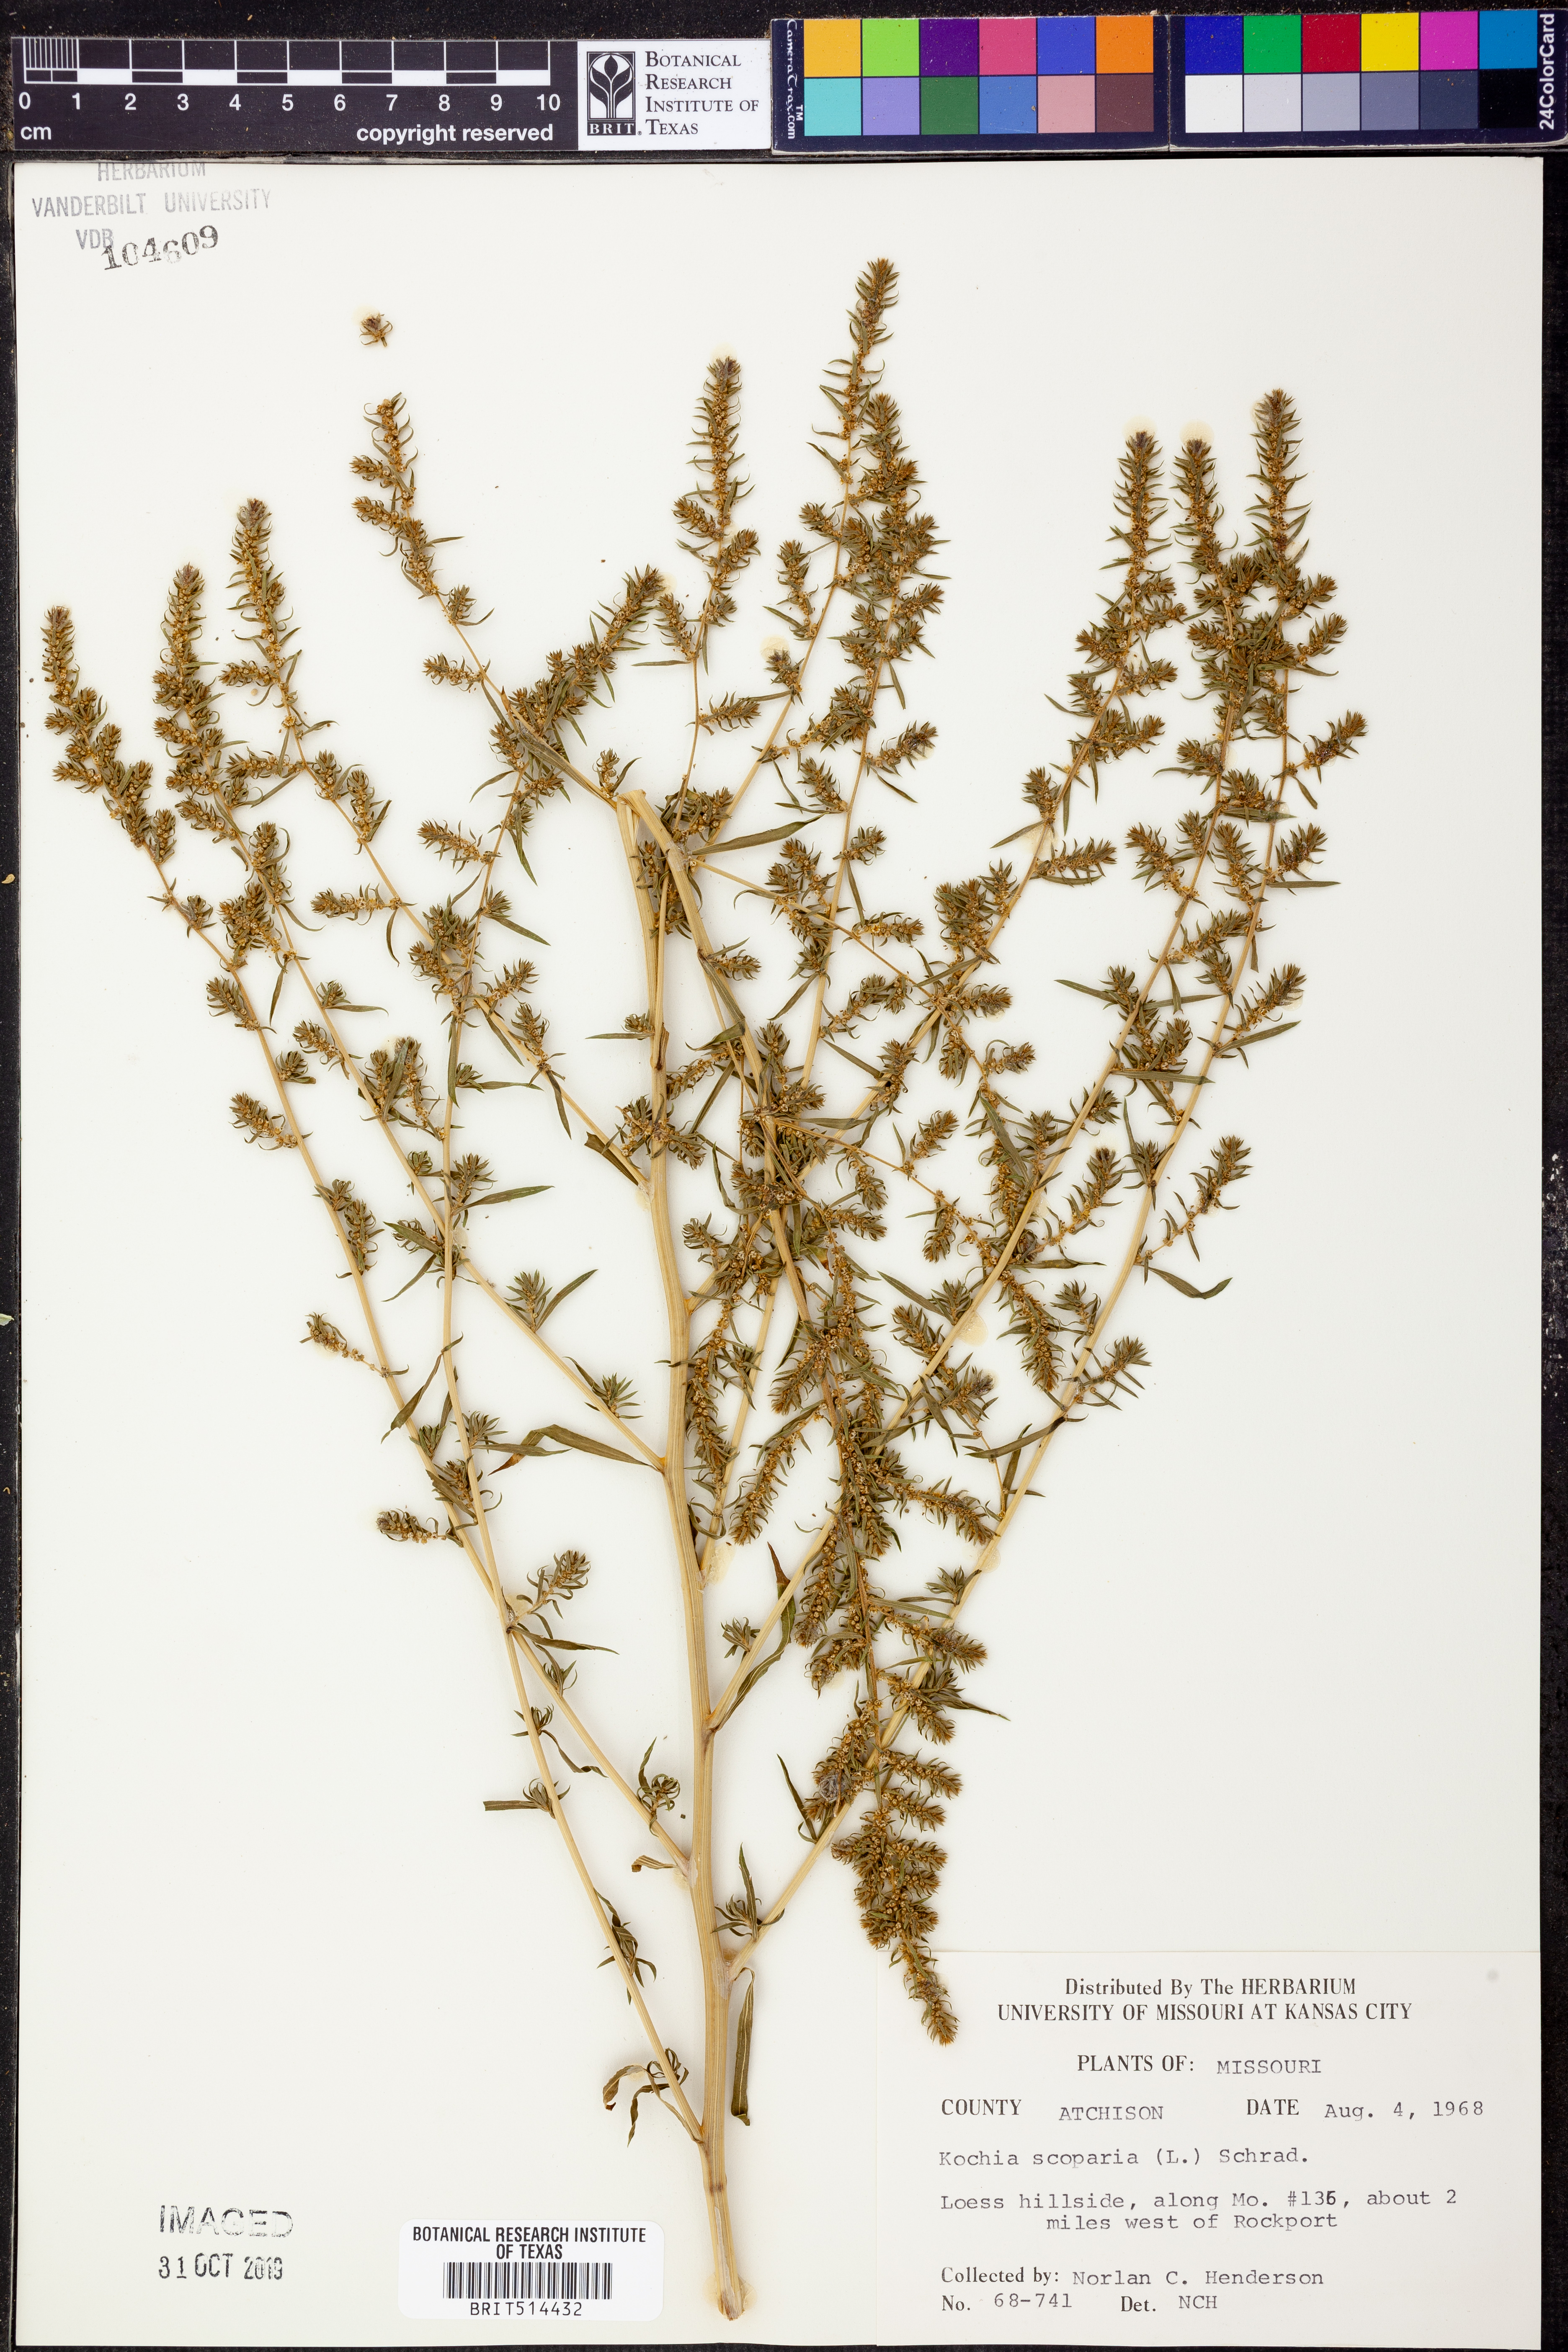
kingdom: Plantae
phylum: Tracheophyta
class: Magnoliopsida
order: Caryophyllales
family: Amaranthaceae
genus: Bassia
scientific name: Bassia scoparia
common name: Belvedere
